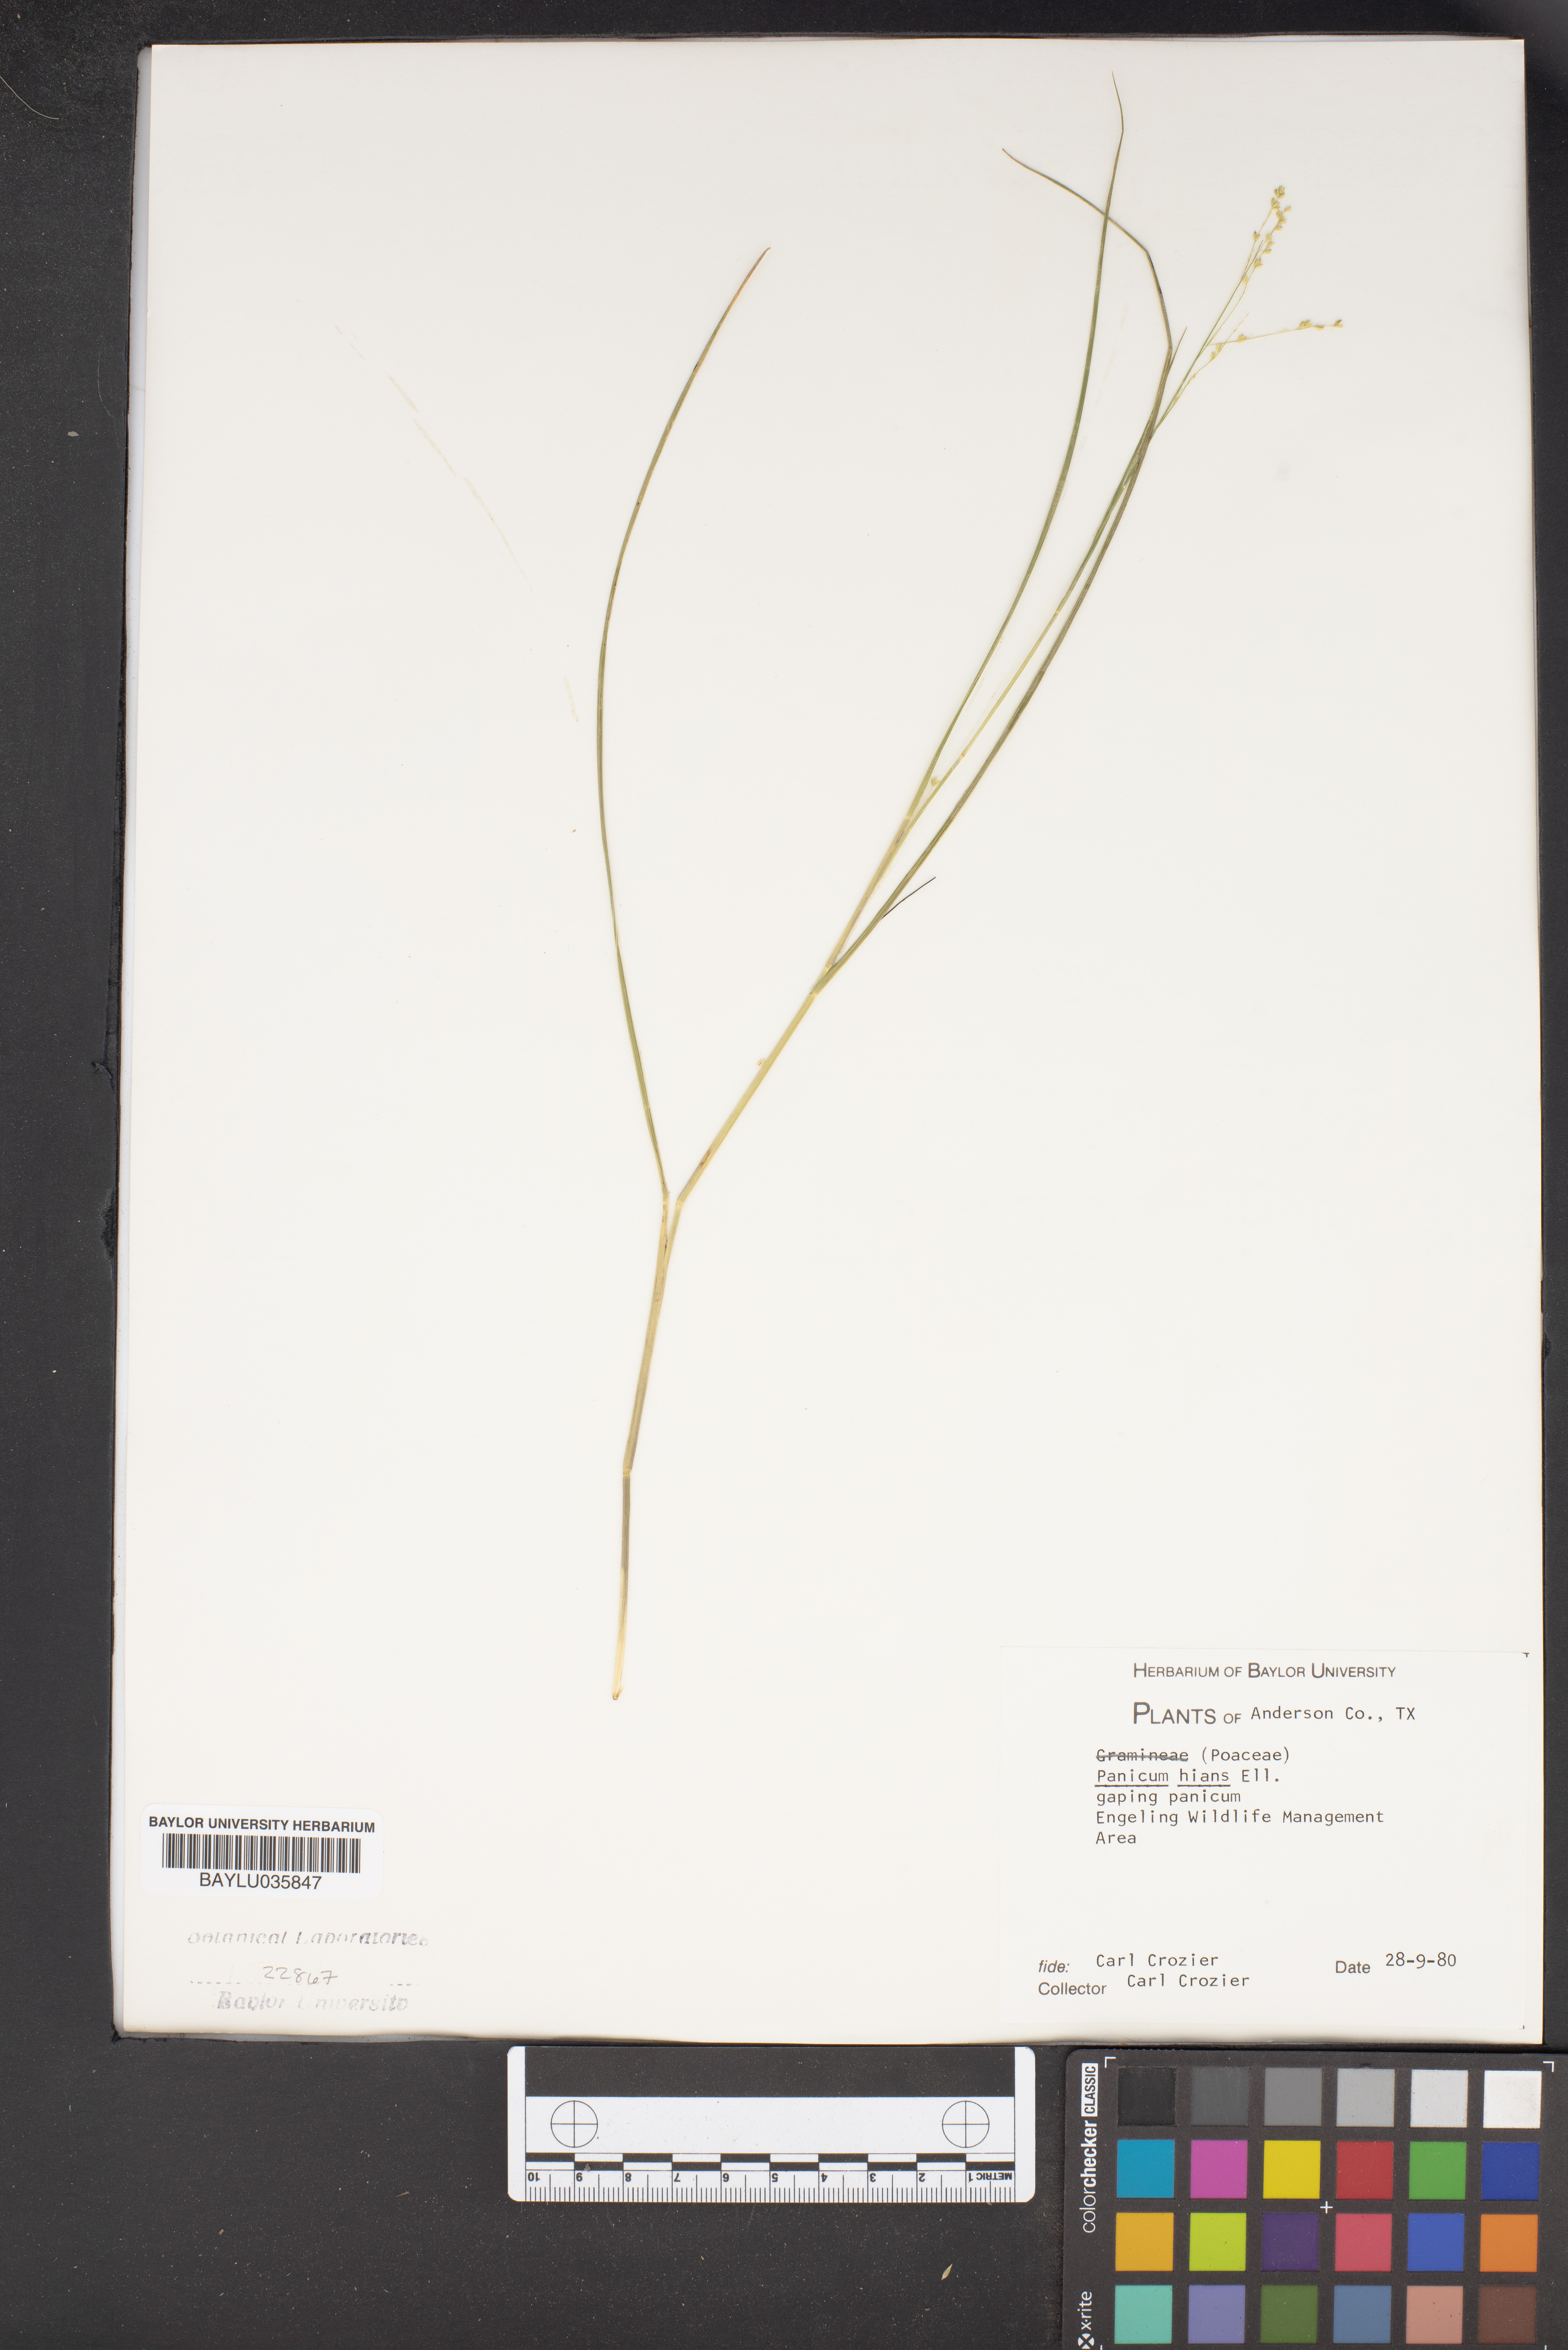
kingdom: Plantae
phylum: Tracheophyta
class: Liliopsida
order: Poales
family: Poaceae
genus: Coleataenia
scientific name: Coleataenia stenodes
